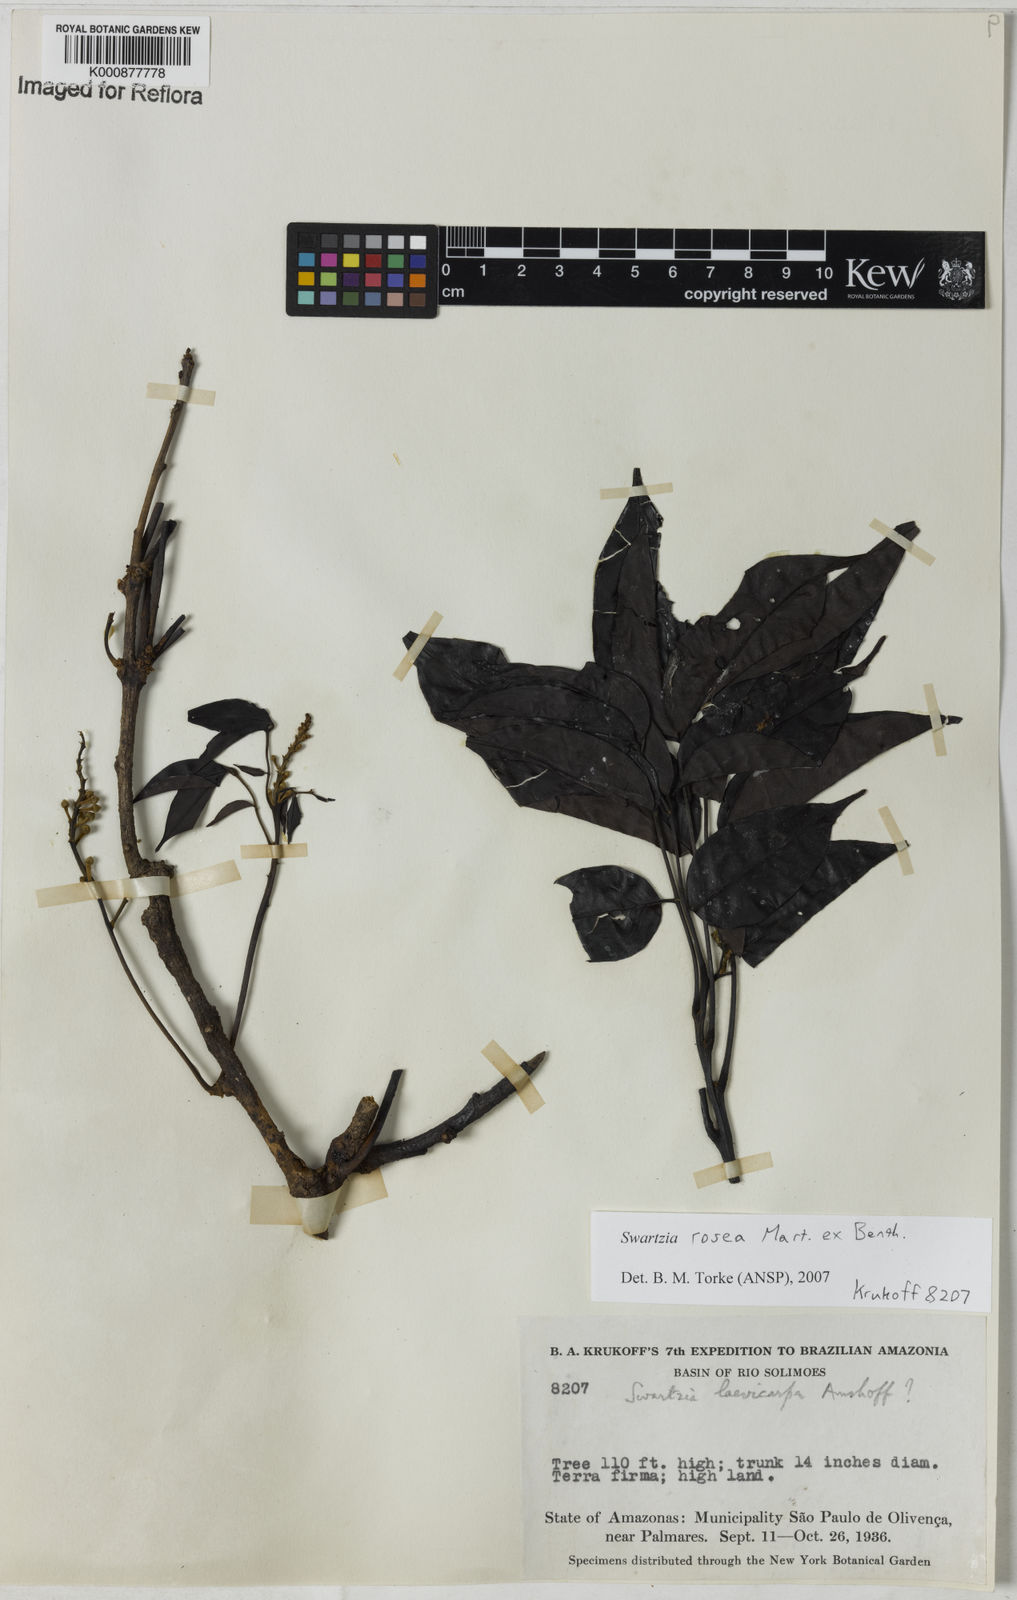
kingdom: Plantae
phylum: Tracheophyta
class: Magnoliopsida
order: Fabales
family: Fabaceae
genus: Swartzia
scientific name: Swartzia rosea
